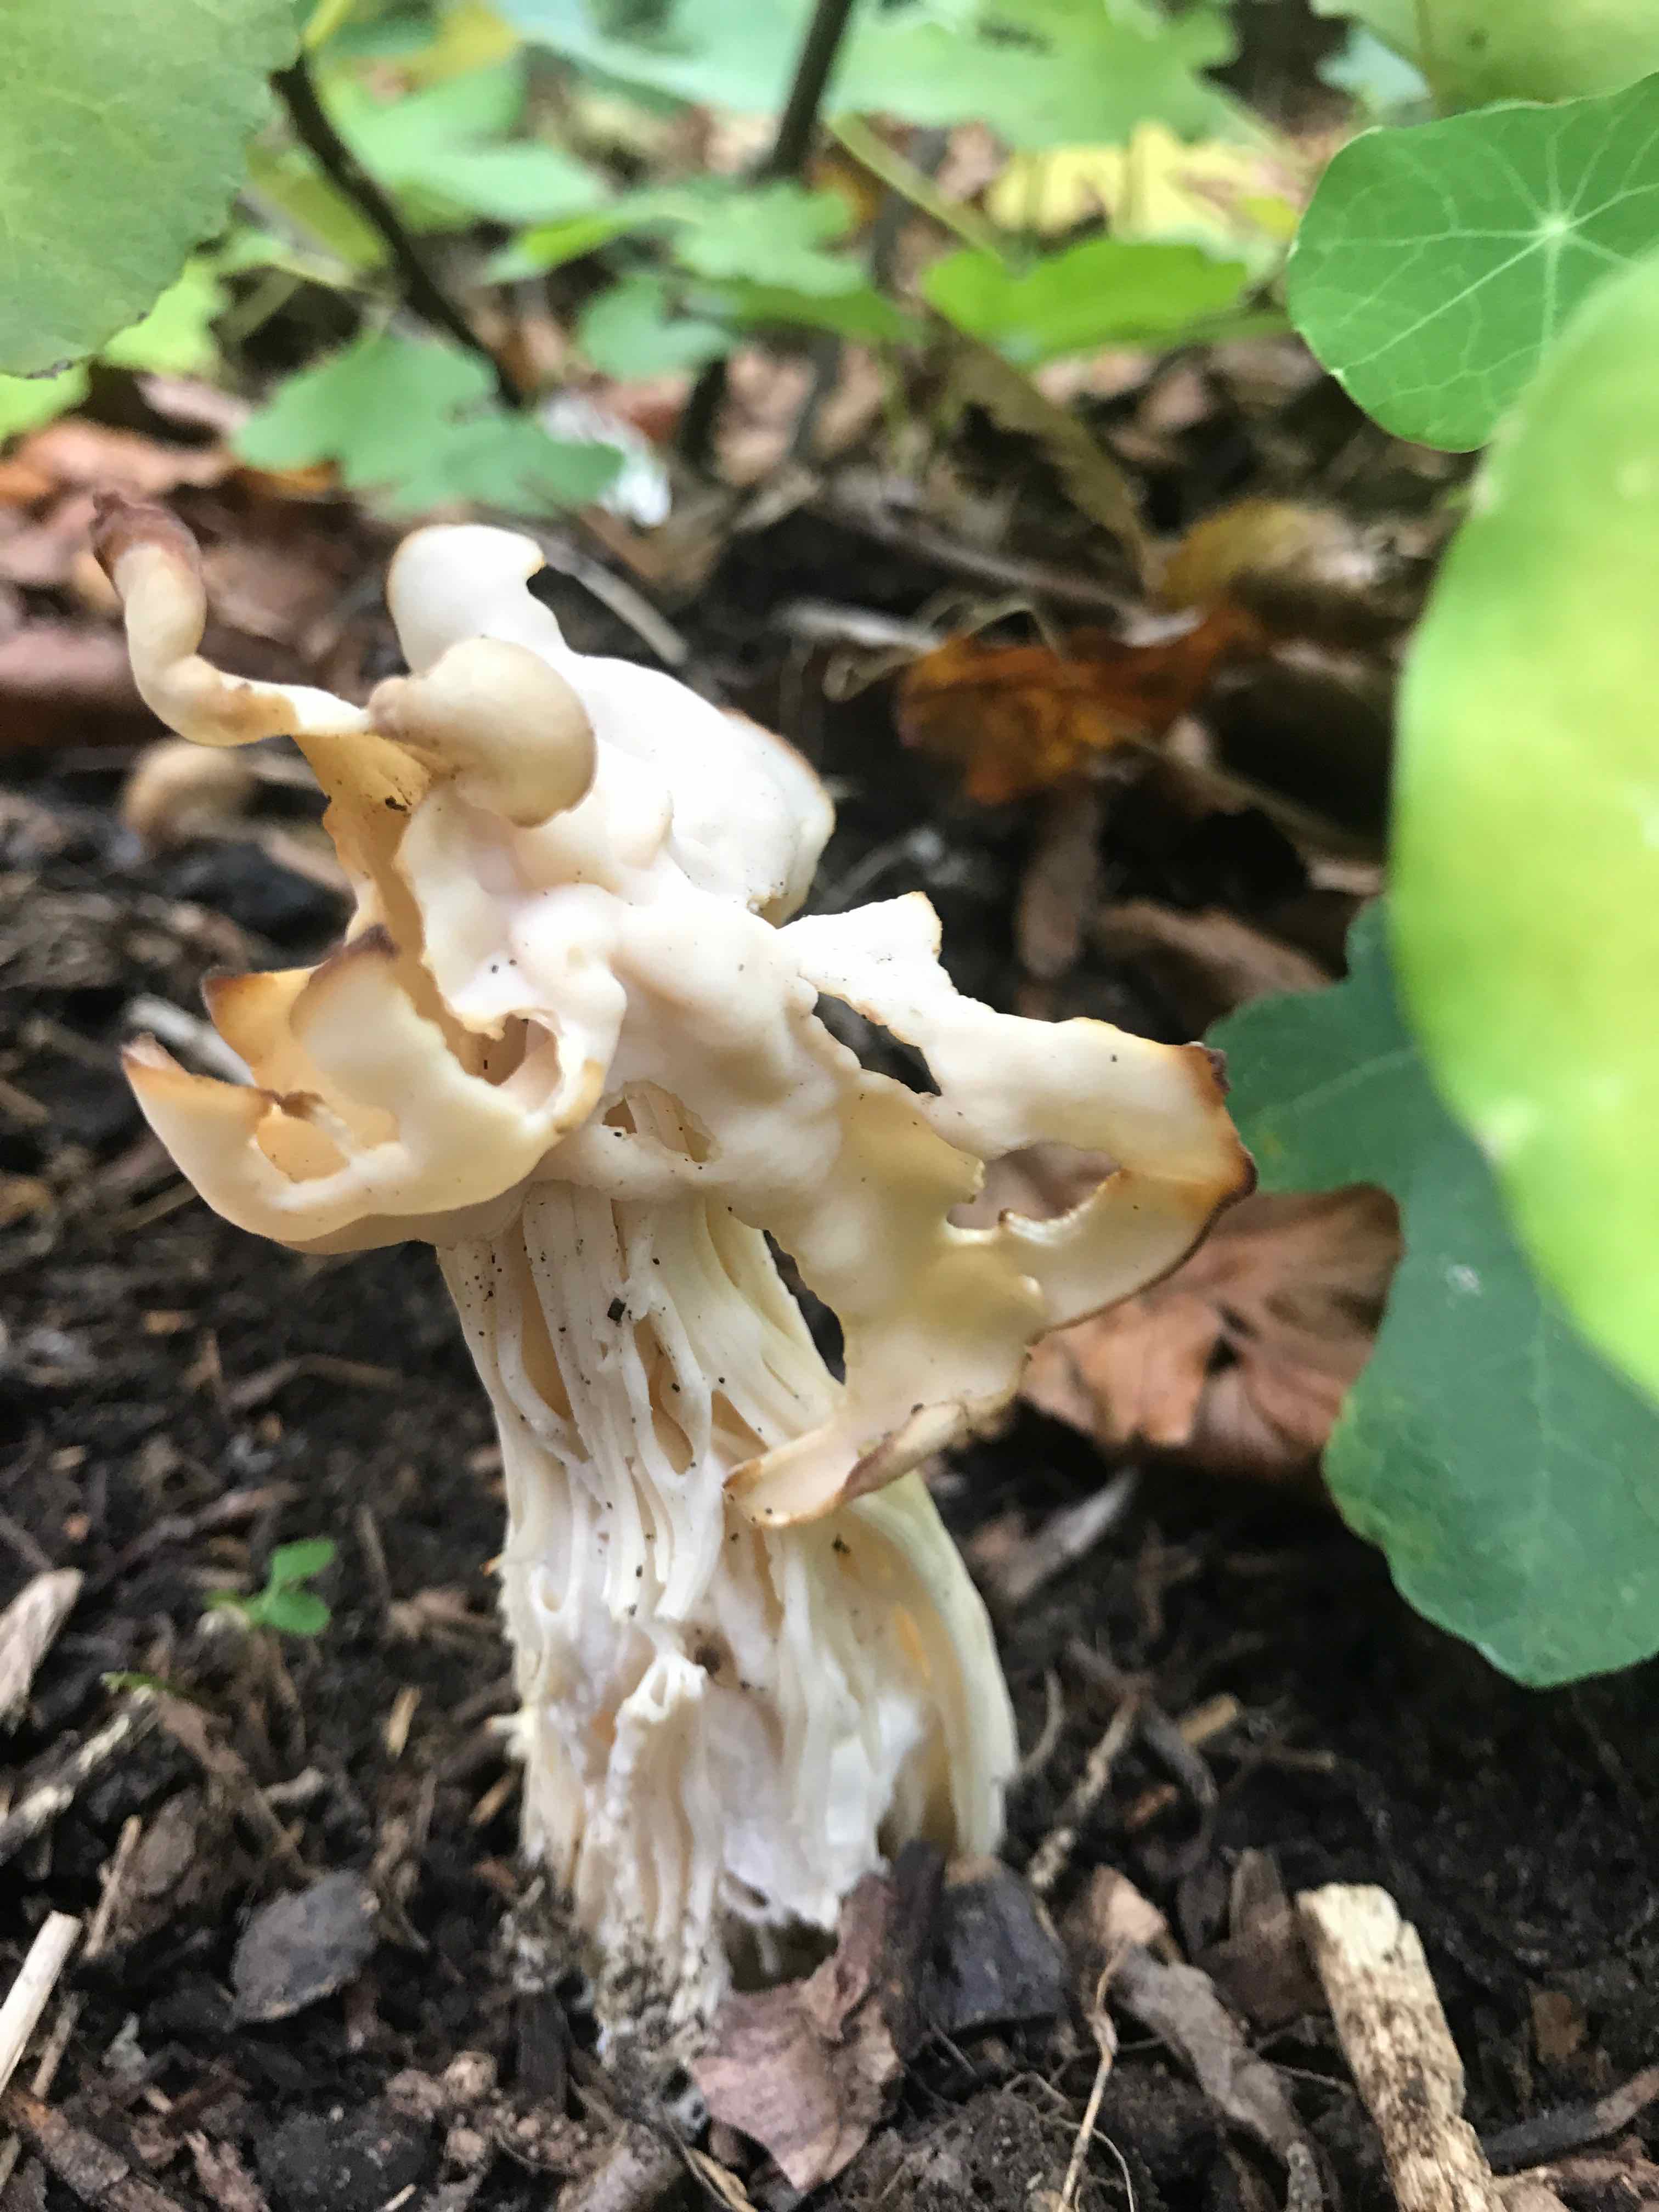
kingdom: Fungi
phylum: Ascomycota
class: Pezizomycetes
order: Pezizales
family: Helvellaceae
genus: Helvella
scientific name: Helvella crispa
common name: kruset foldhat
